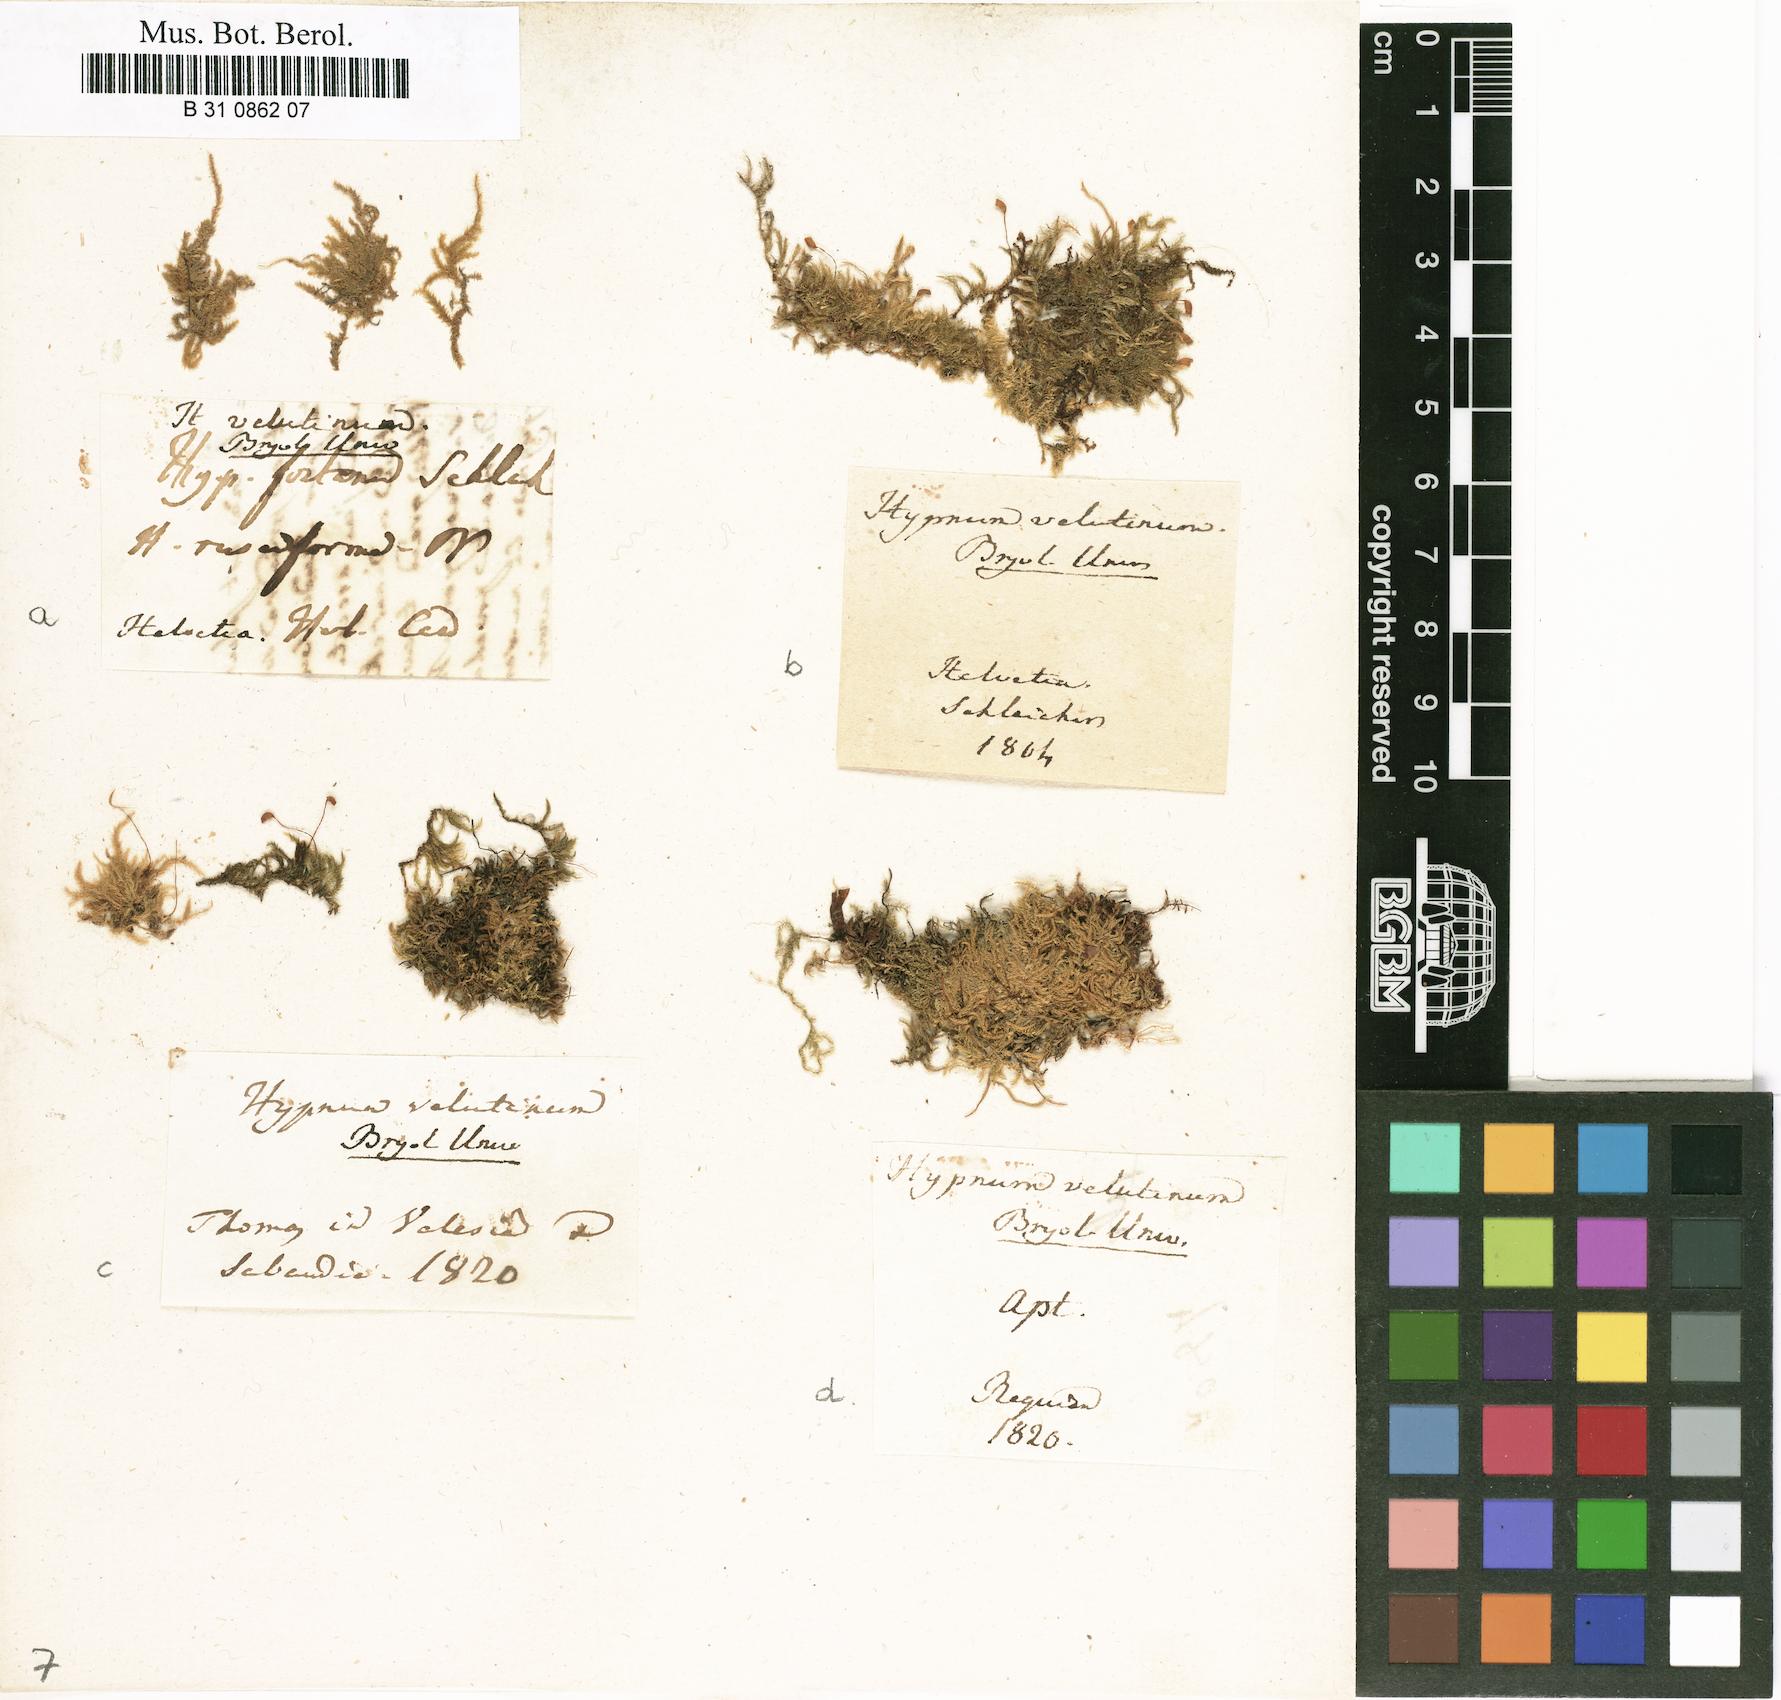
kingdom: Plantae
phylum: Bryophyta
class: Bryopsida
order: Hypnales
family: Brachytheciaceae
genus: Brachytheciastrum
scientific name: Brachytheciastrum velutinum
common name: Velvet feather-moss
